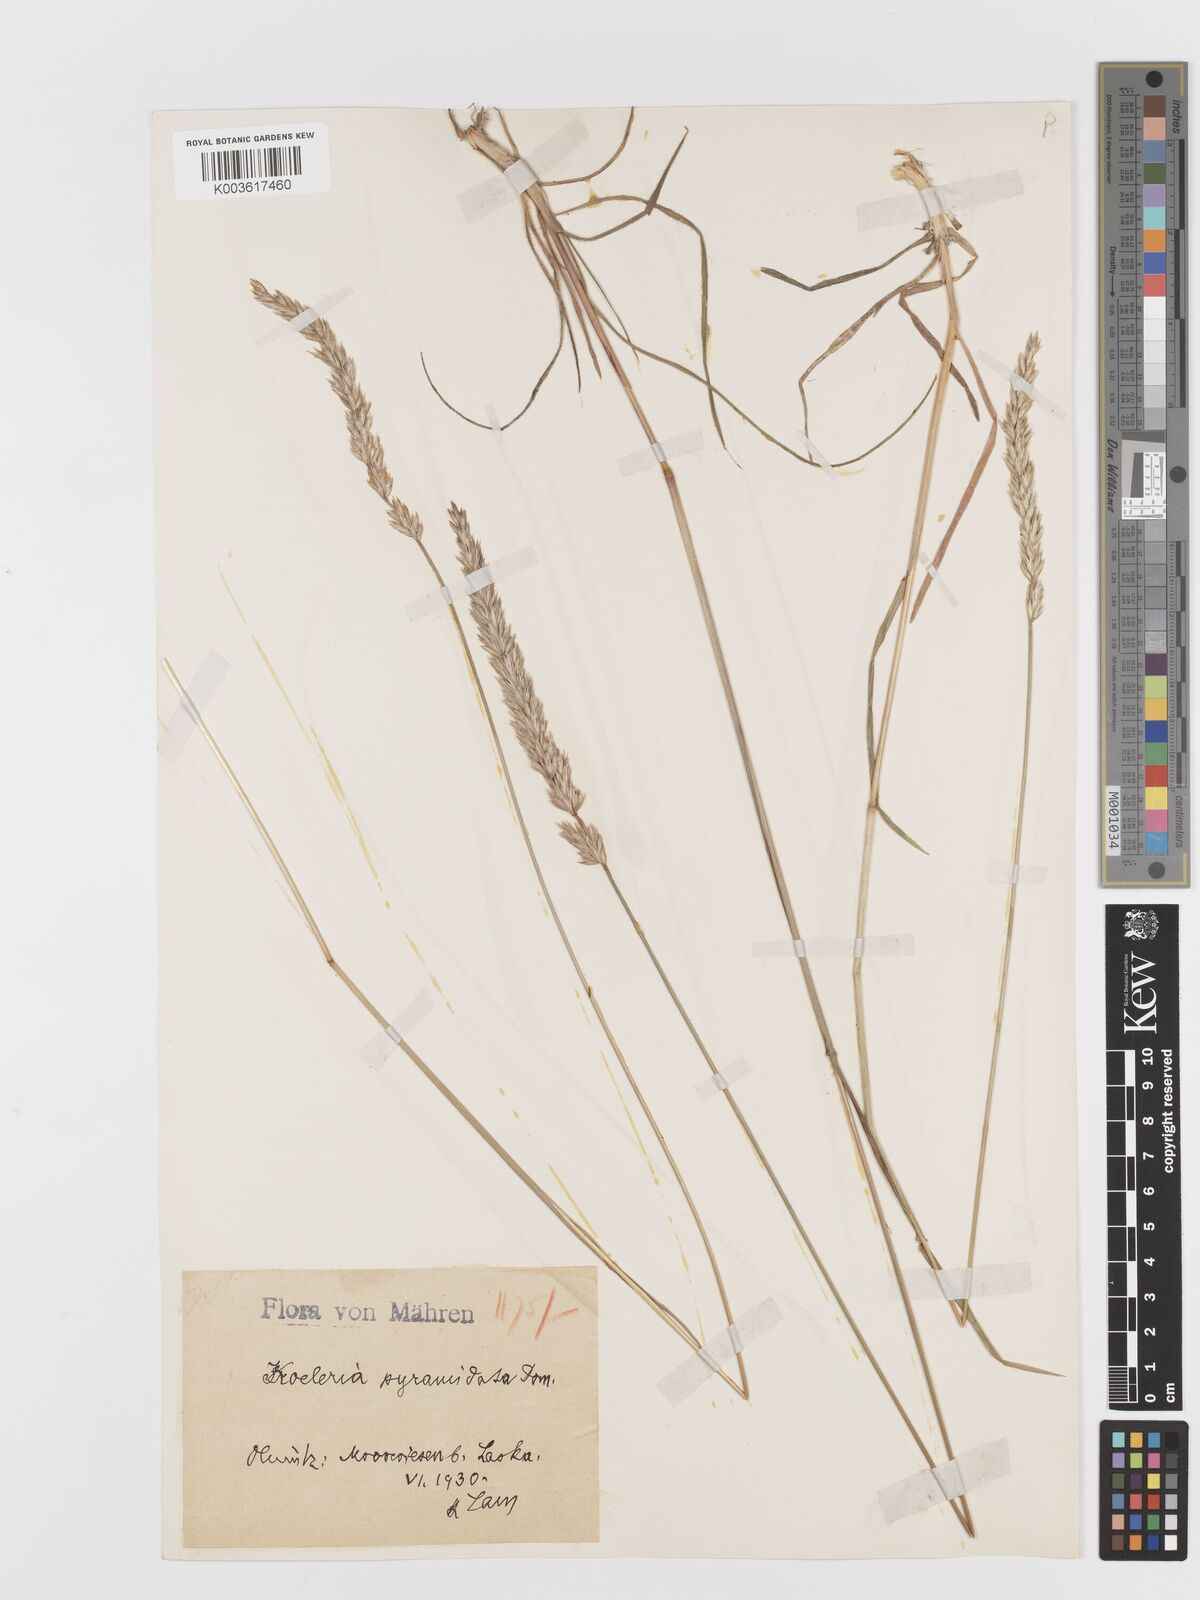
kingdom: Plantae
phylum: Tracheophyta
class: Liliopsida
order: Poales
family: Poaceae
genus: Koeleria
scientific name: Koeleria pyramidata
